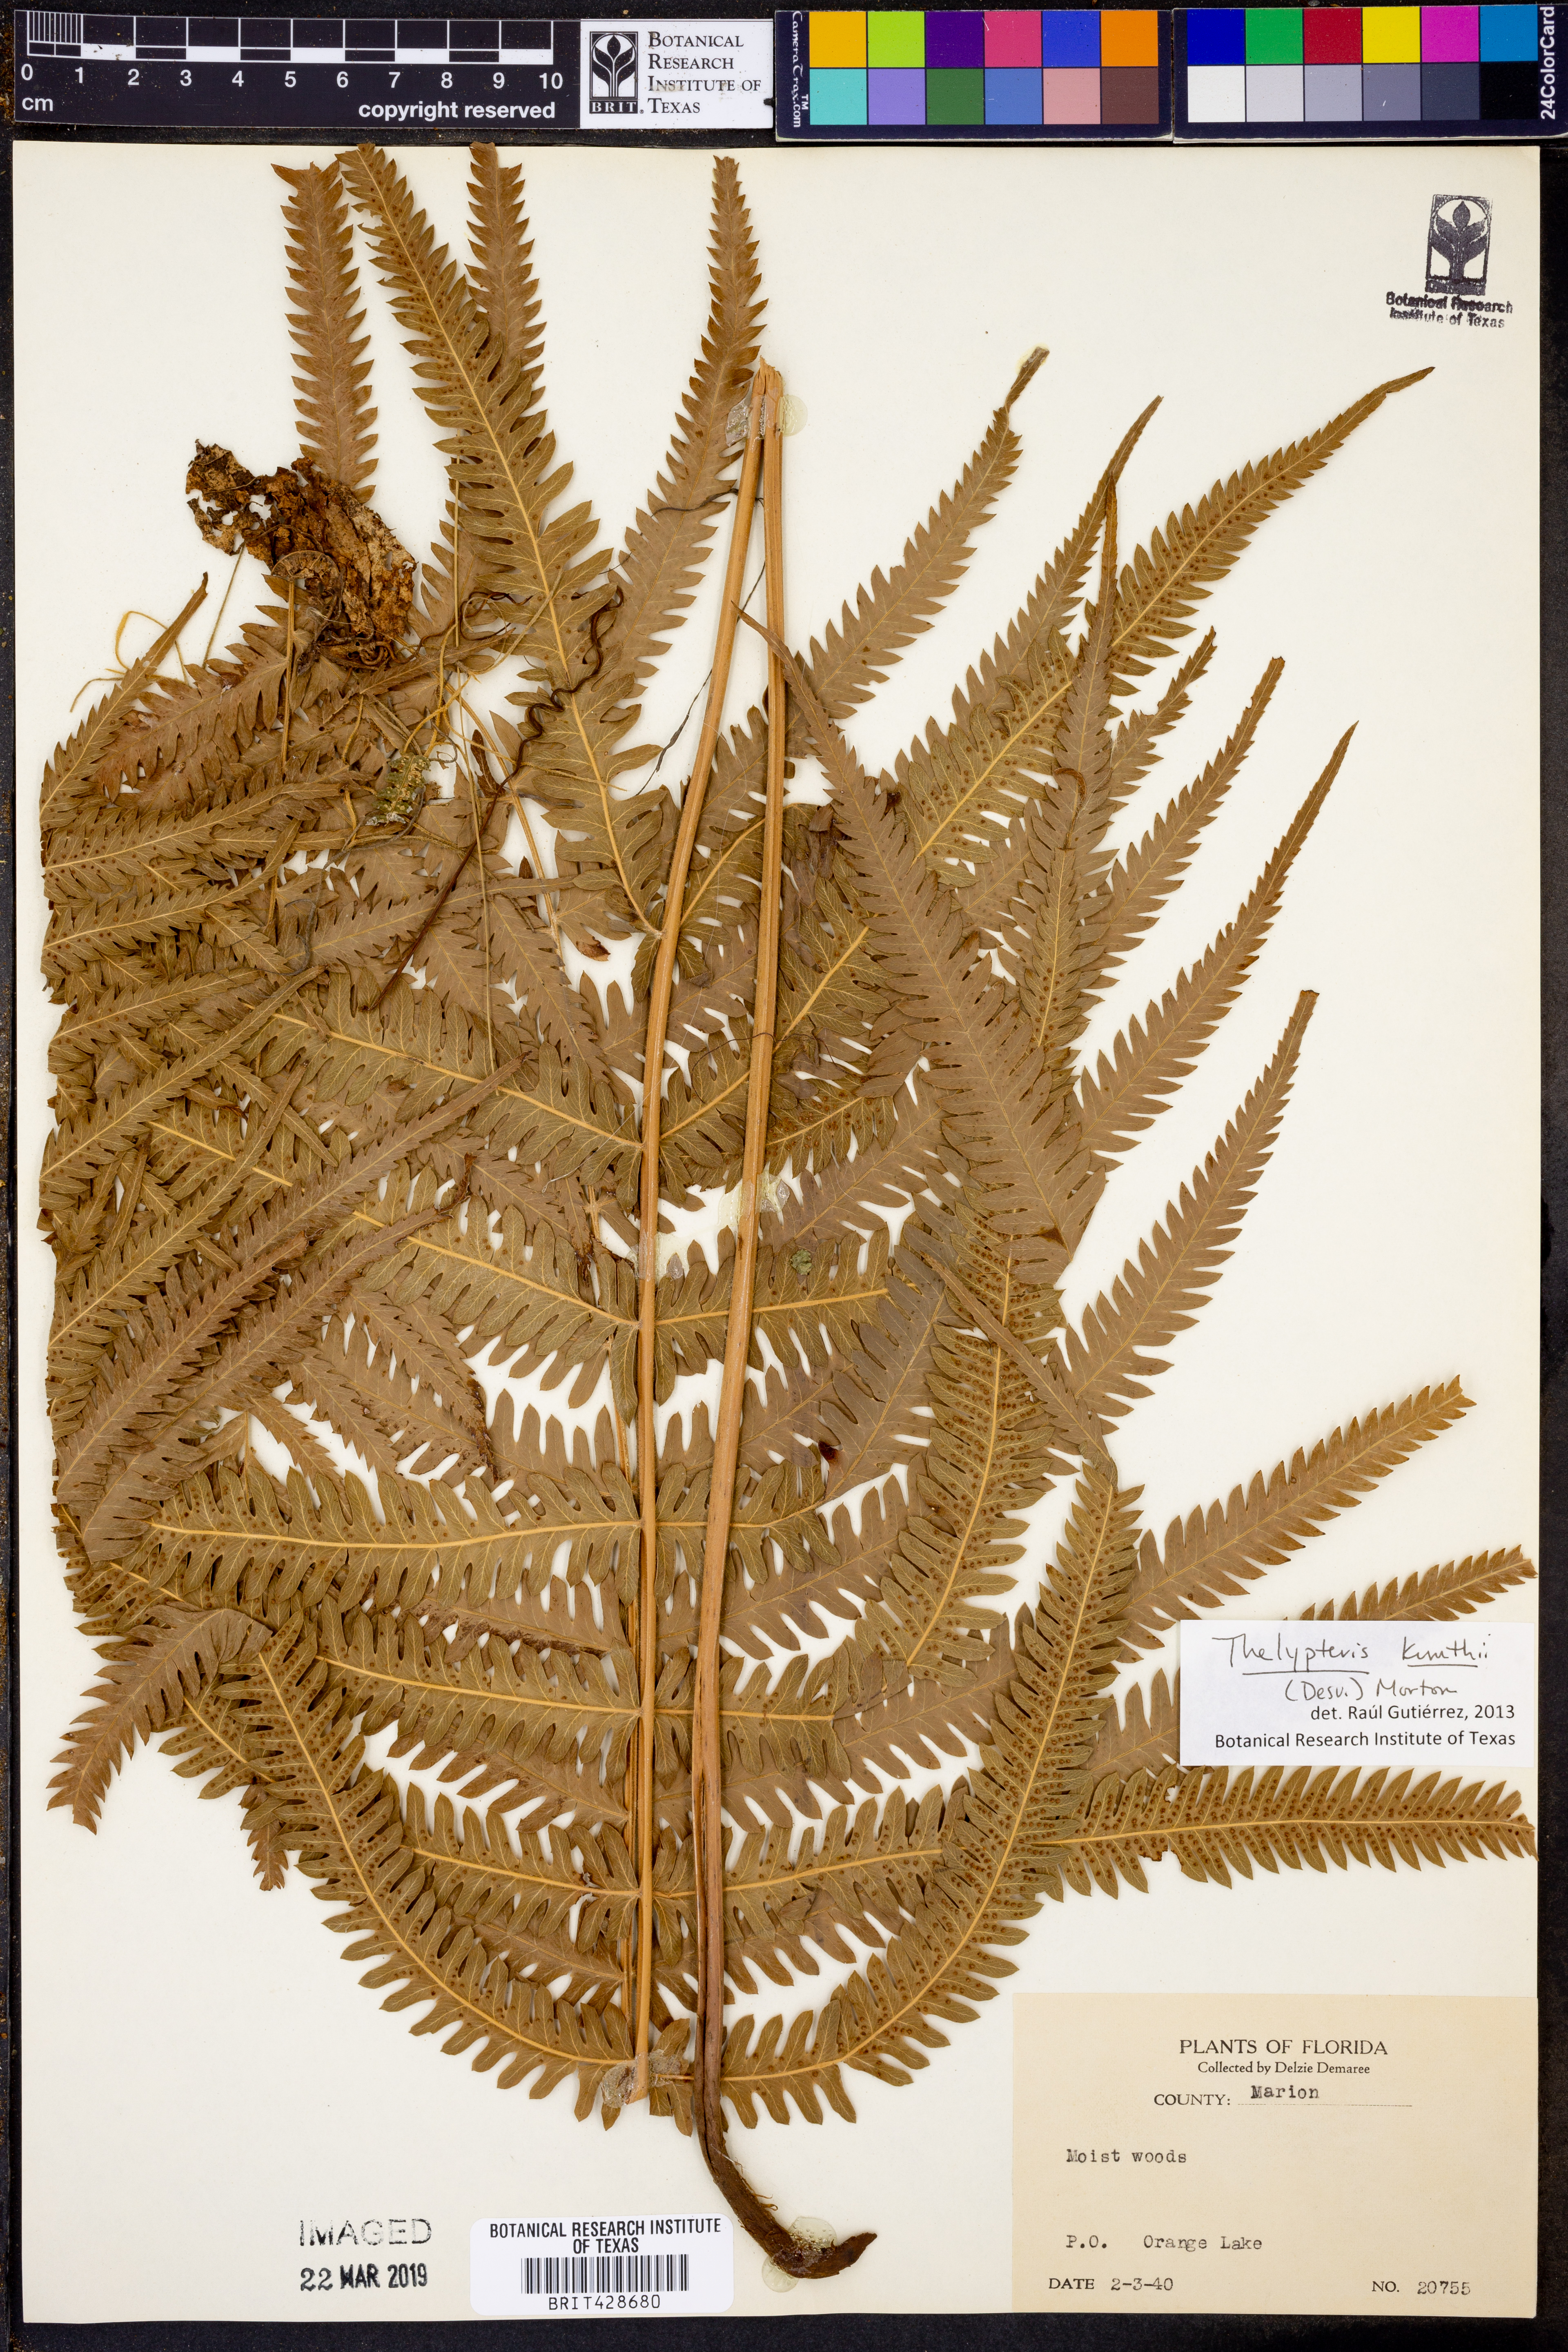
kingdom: Plantae
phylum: Tracheophyta
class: Polypodiopsida
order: Polypodiales
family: Thelypteridaceae
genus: Pelazoneuron
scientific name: Pelazoneuron kunthii
